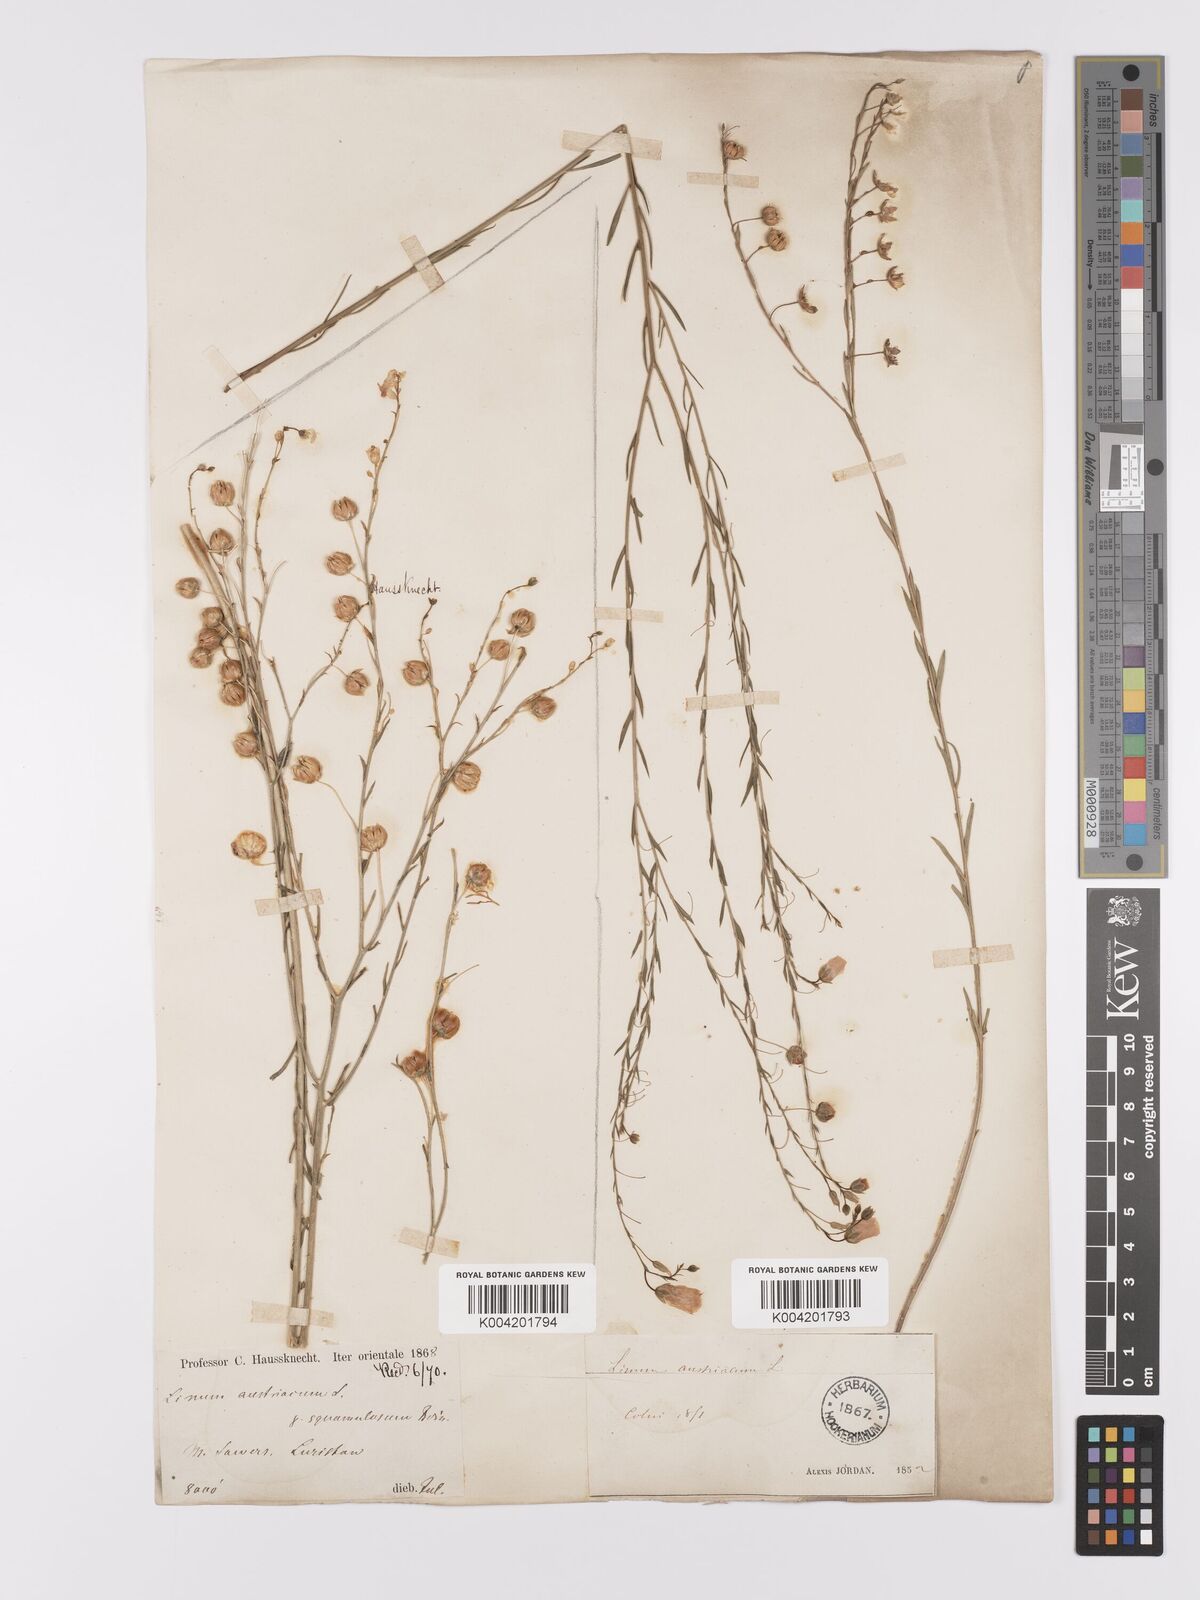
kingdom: Plantae
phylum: Tracheophyta
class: Magnoliopsida
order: Malpighiales
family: Linaceae
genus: Linum
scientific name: Linum
